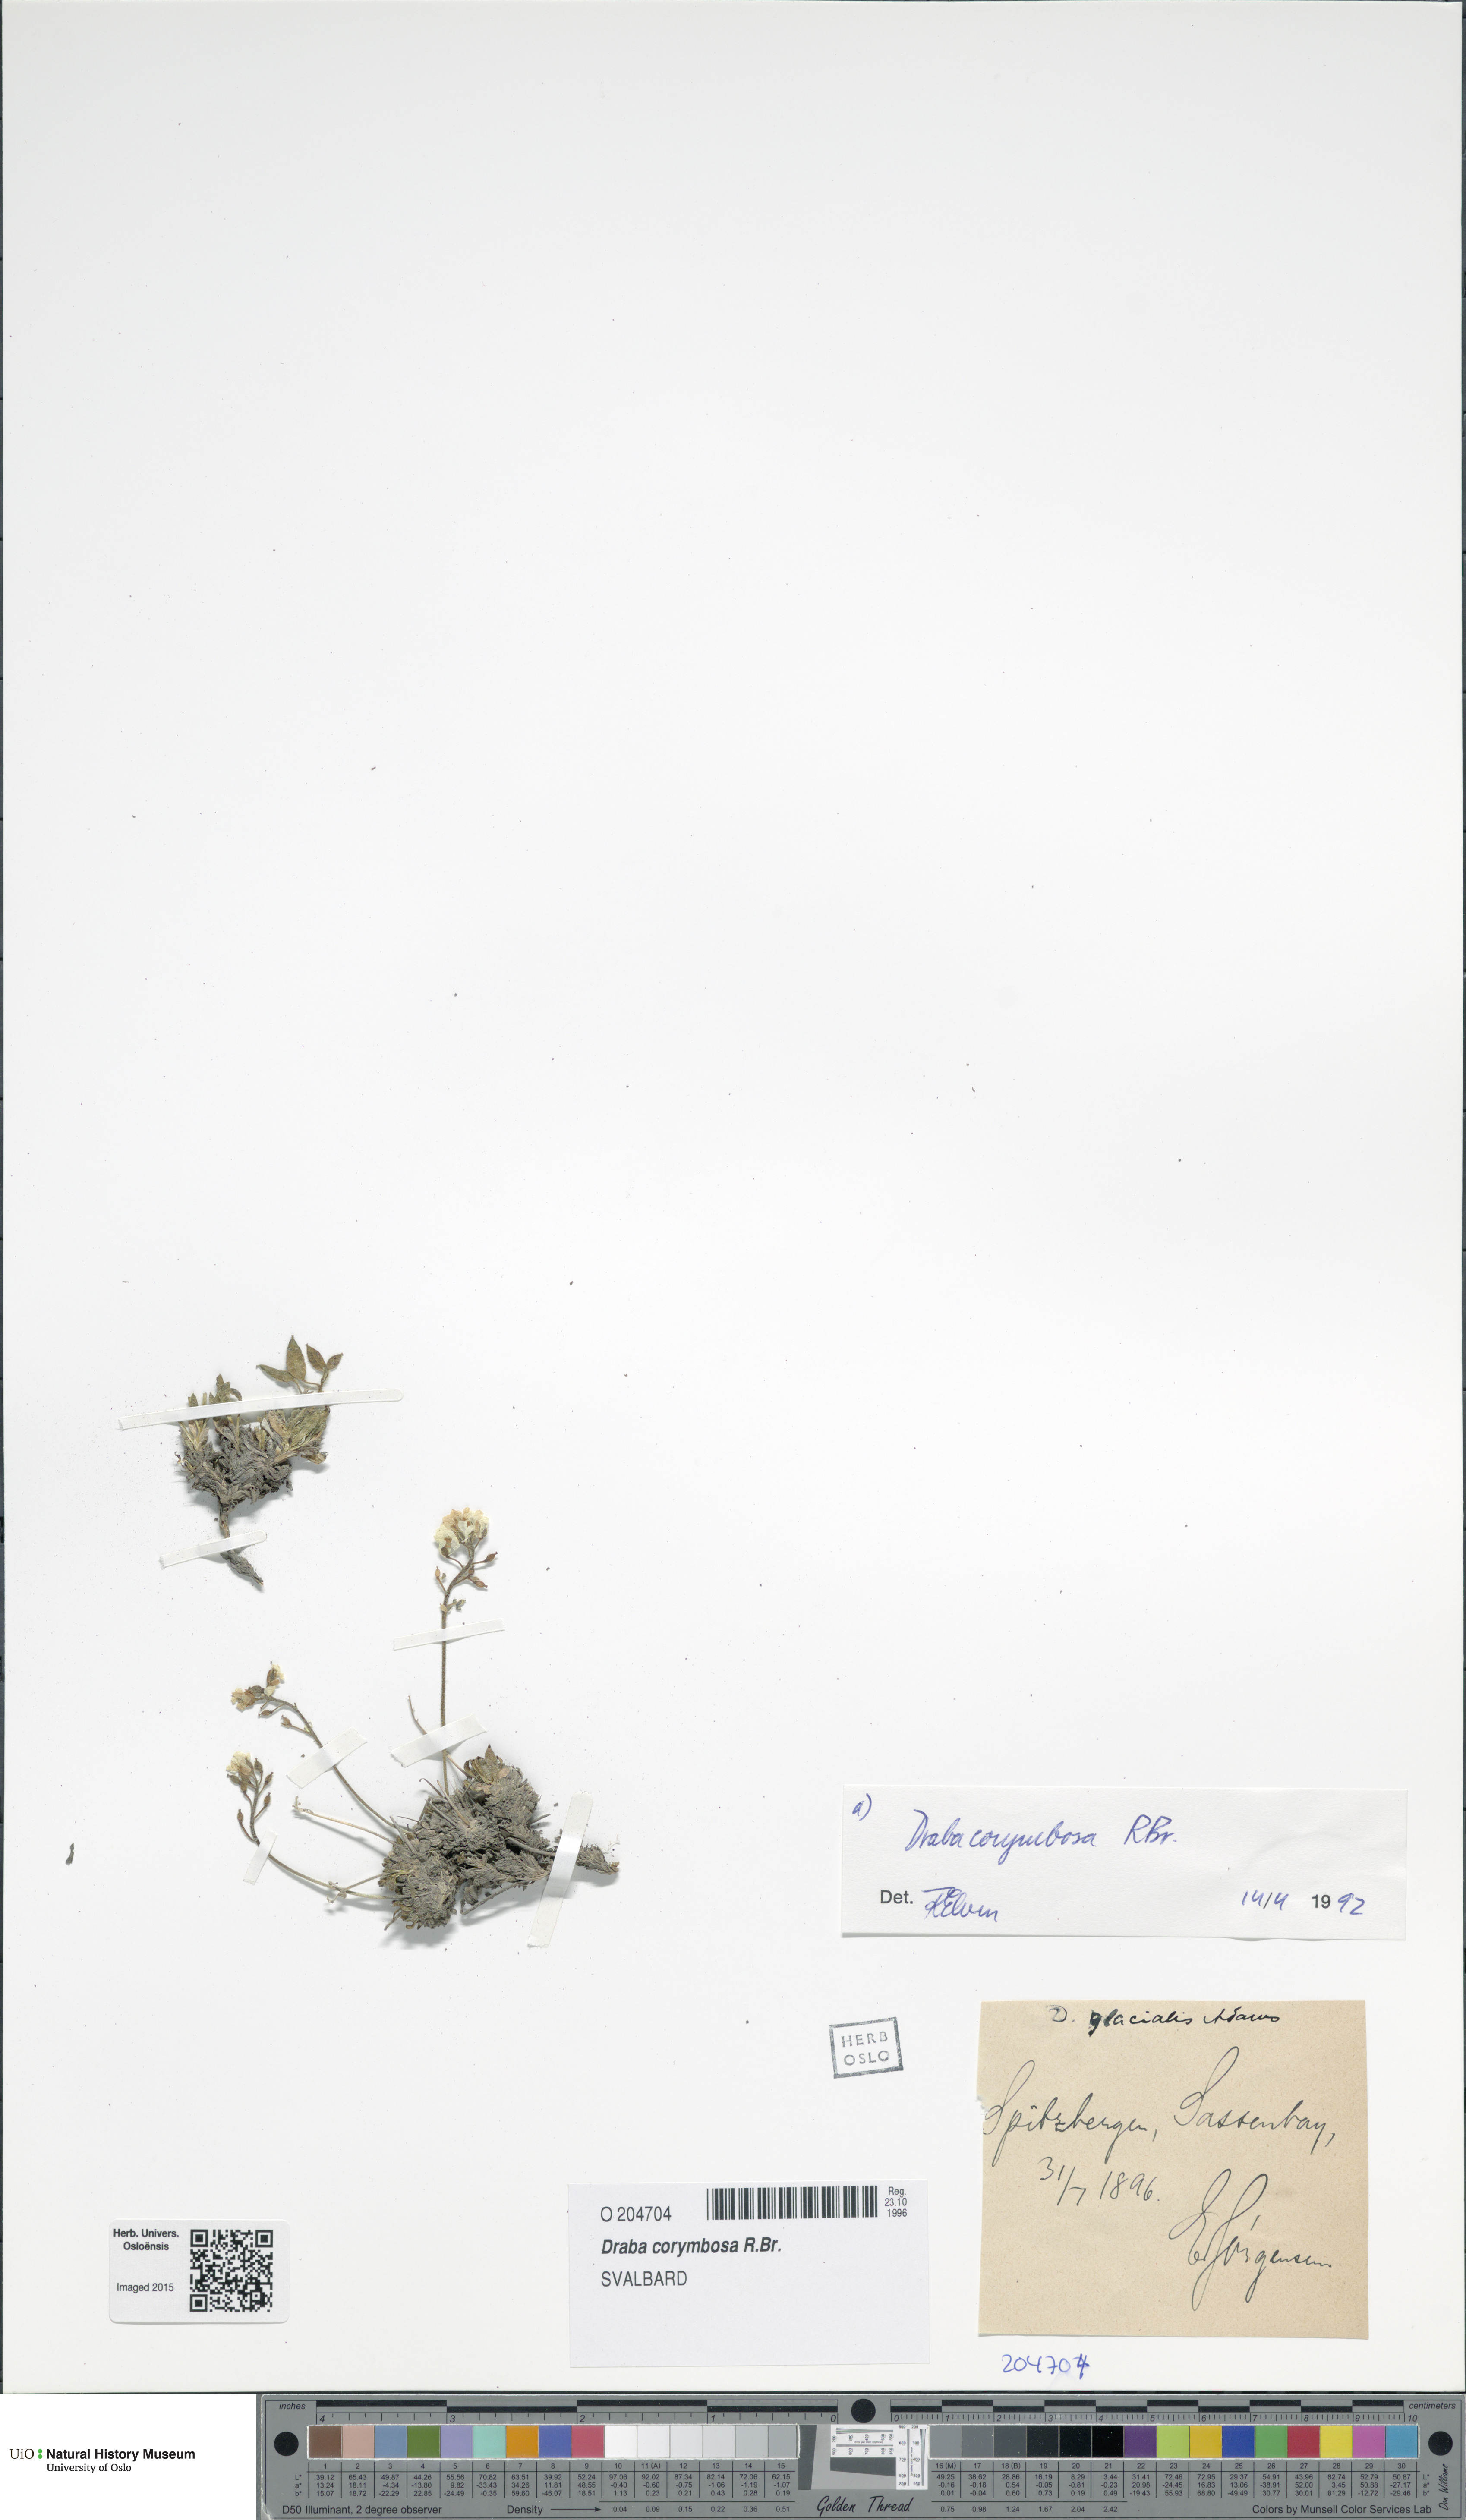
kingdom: Plantae
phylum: Tracheophyta
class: Magnoliopsida
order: Brassicales
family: Brassicaceae
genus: Draba
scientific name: Draba corymbosa
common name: Cushion whitlow-grass
